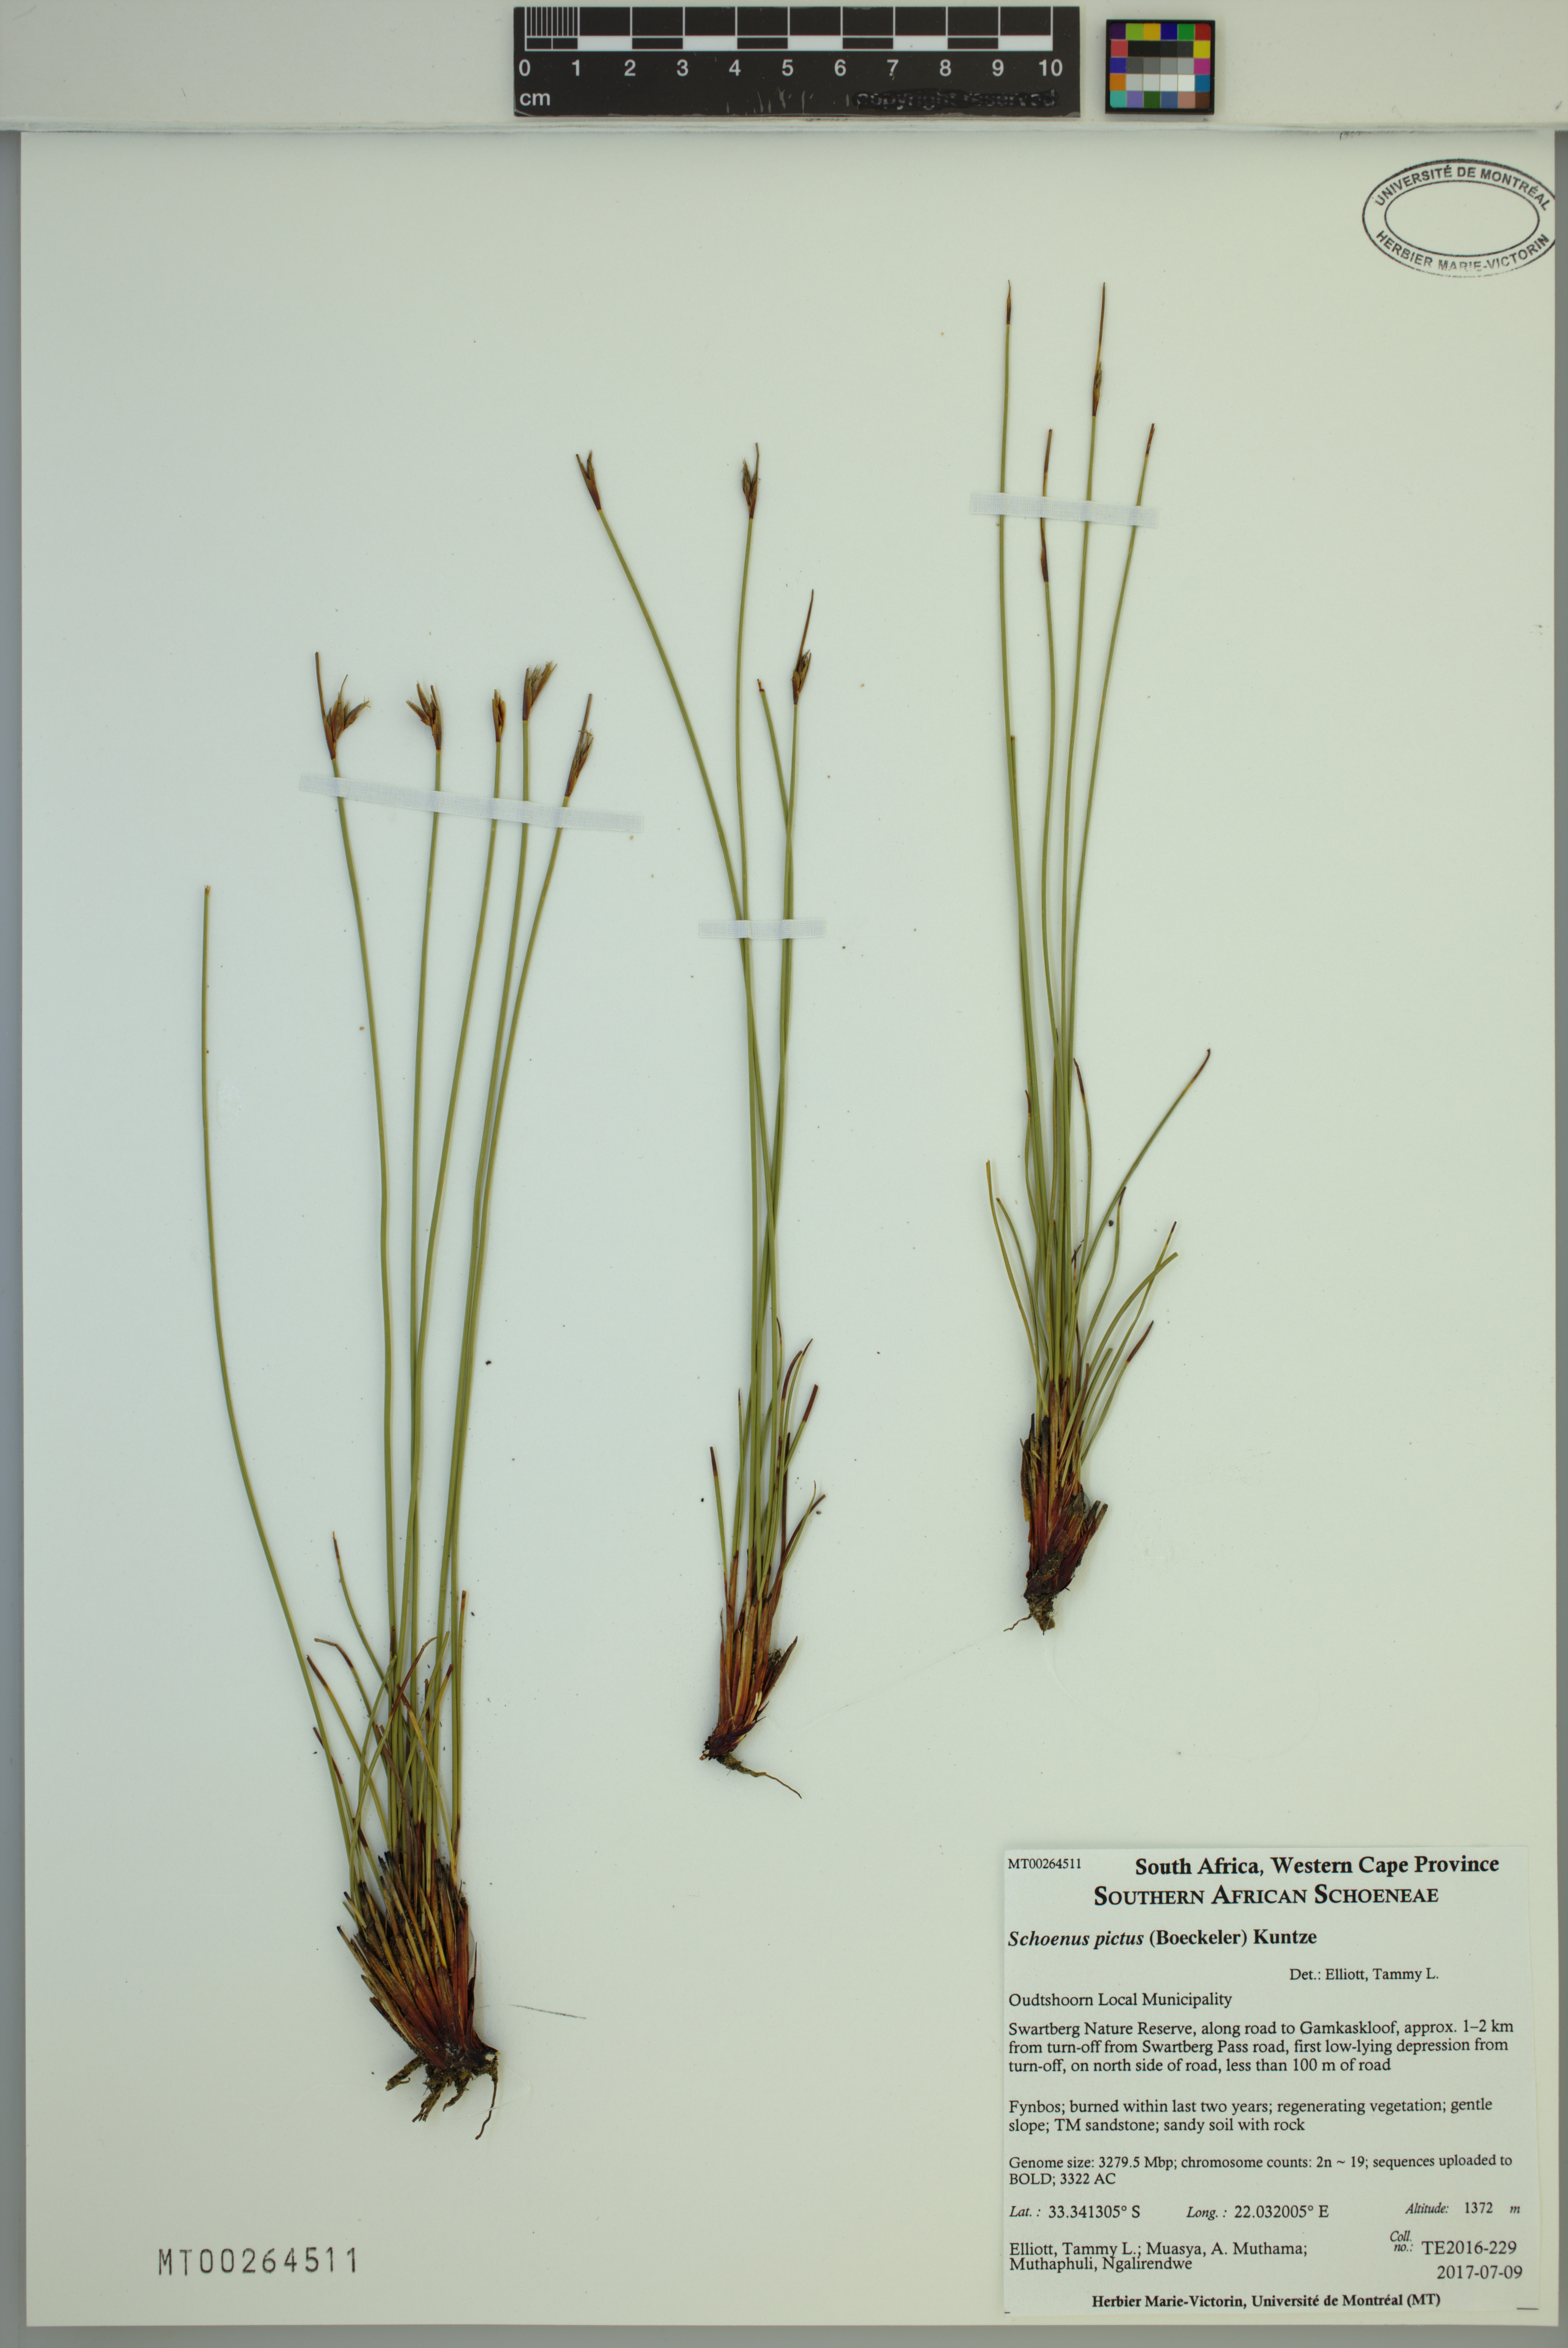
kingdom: Plantae
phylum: Tracheophyta
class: Liliopsida
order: Poales
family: Cyperaceae
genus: Schoenus
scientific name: Schoenus pictus
